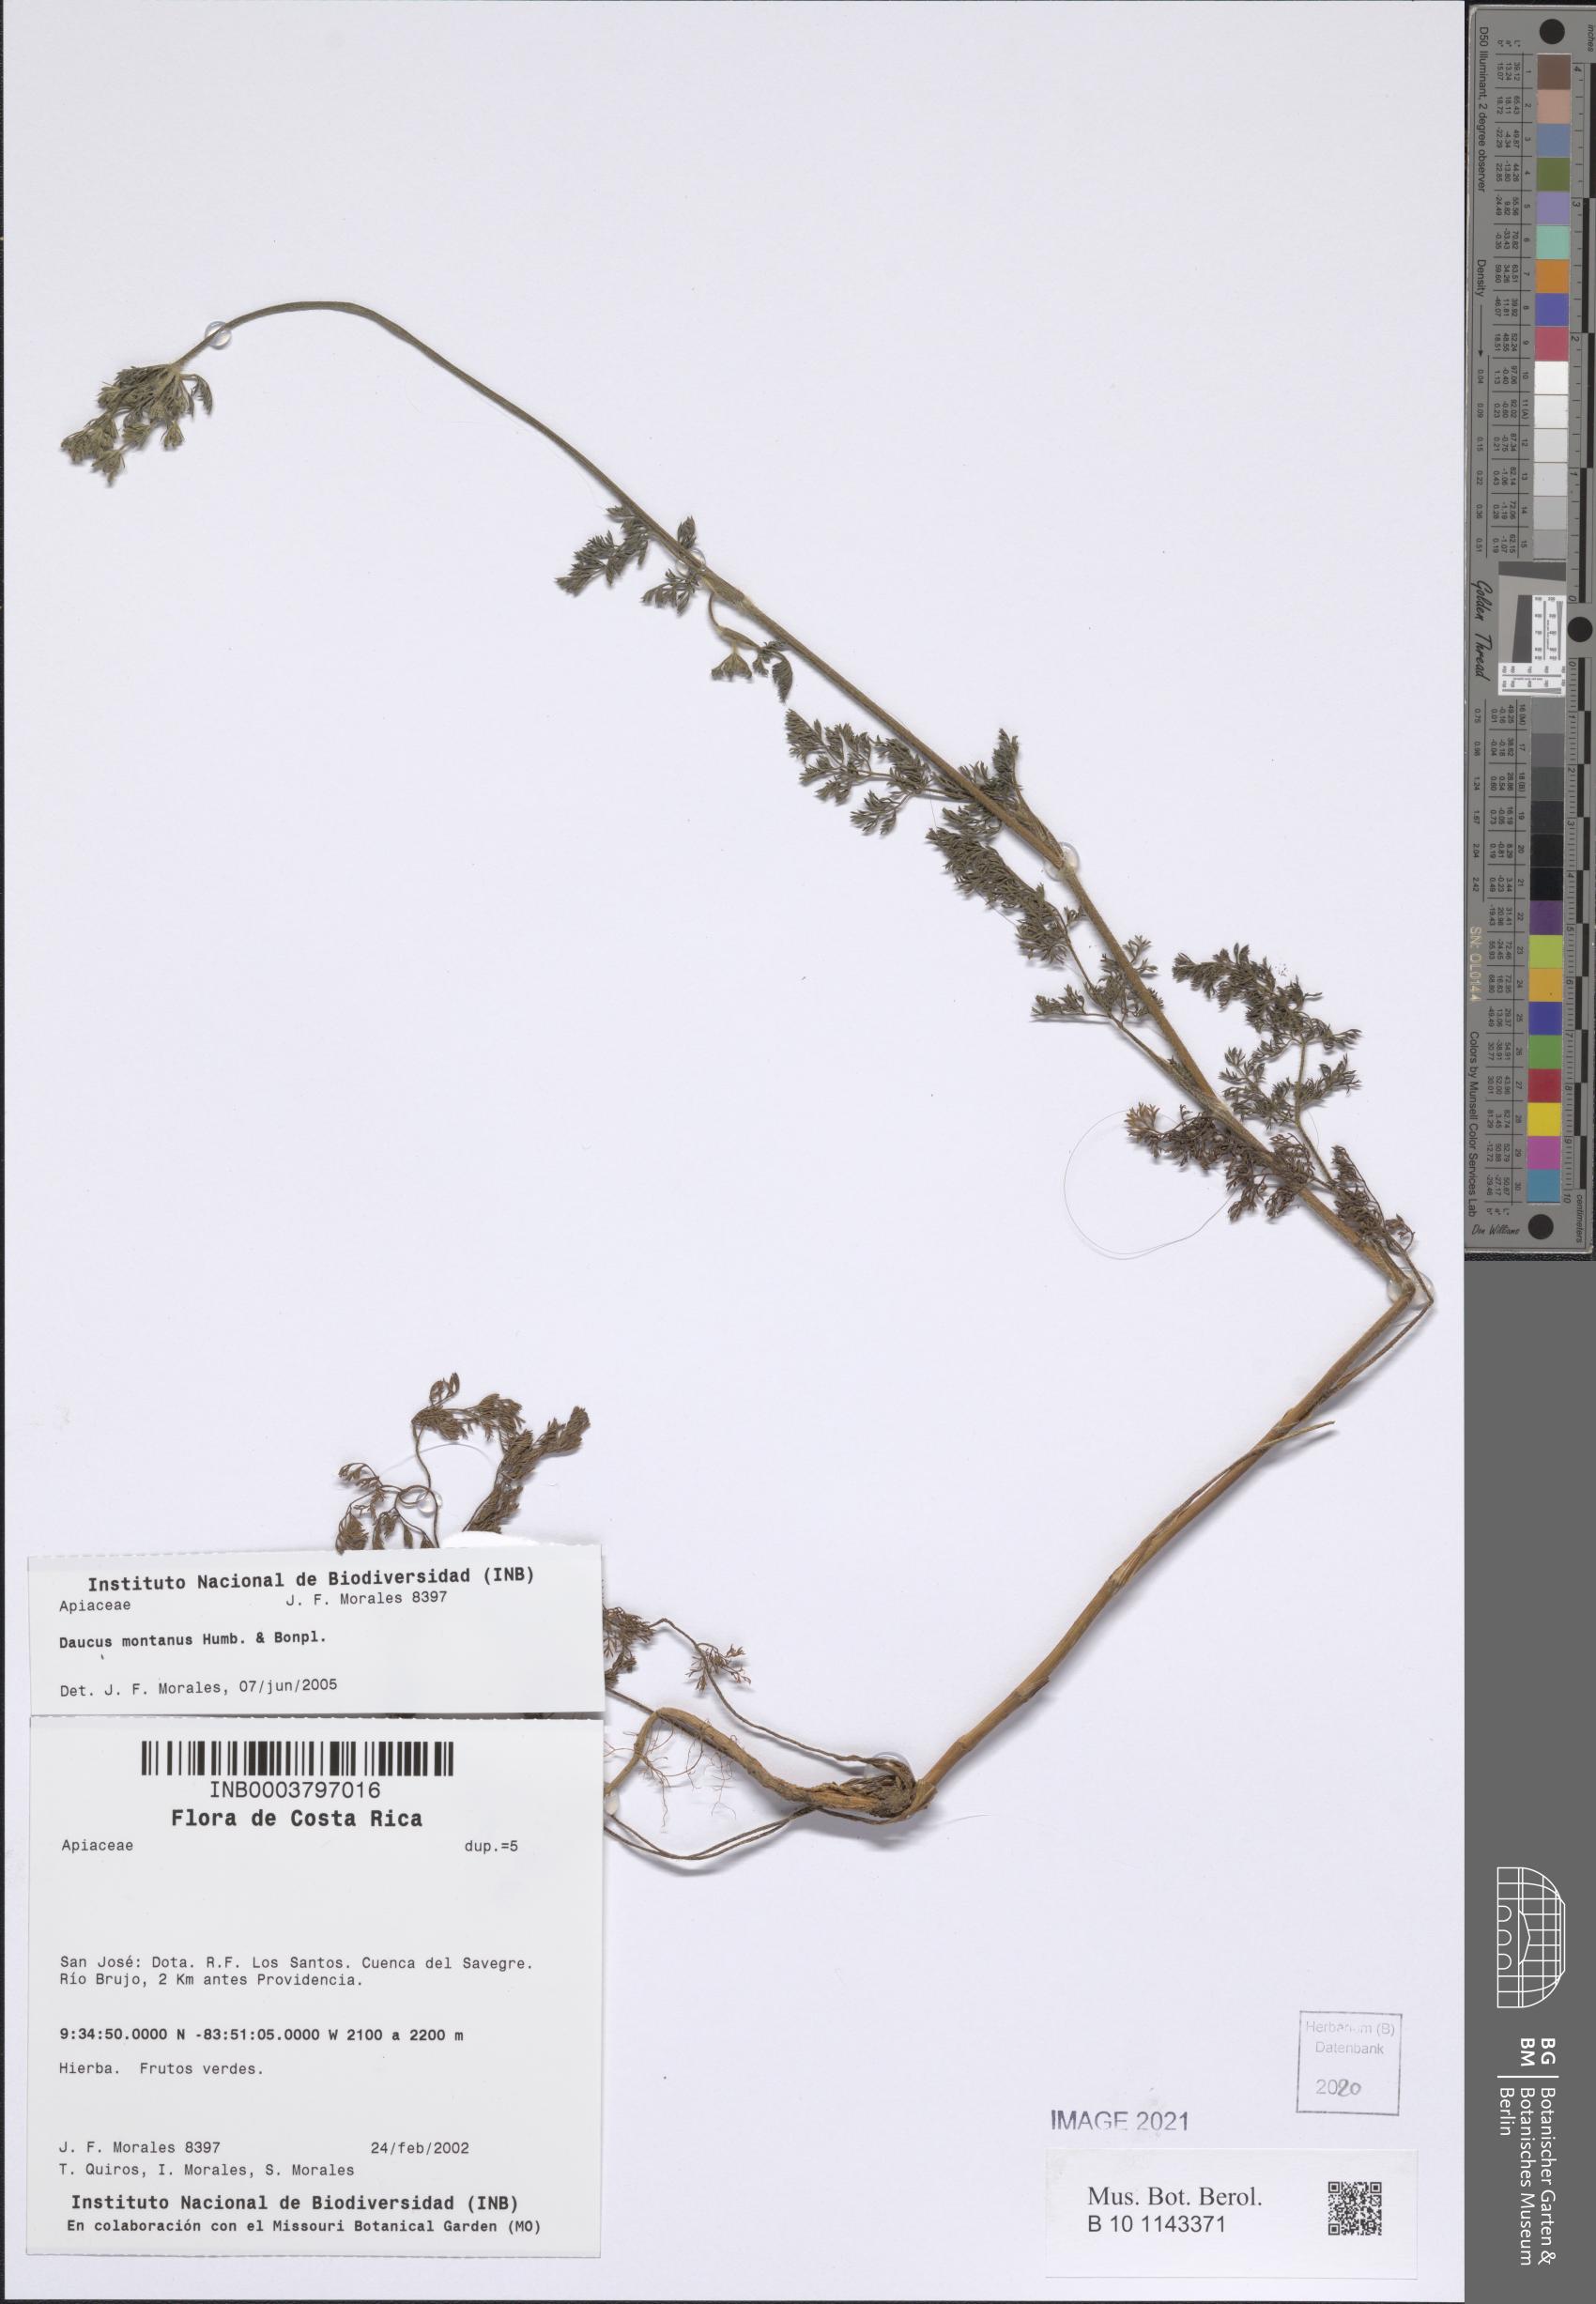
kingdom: Plantae
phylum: Tracheophyta
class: Magnoliopsida
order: Apiales
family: Apiaceae
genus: Daucus
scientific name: Daucus carota
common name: Wild carrot
